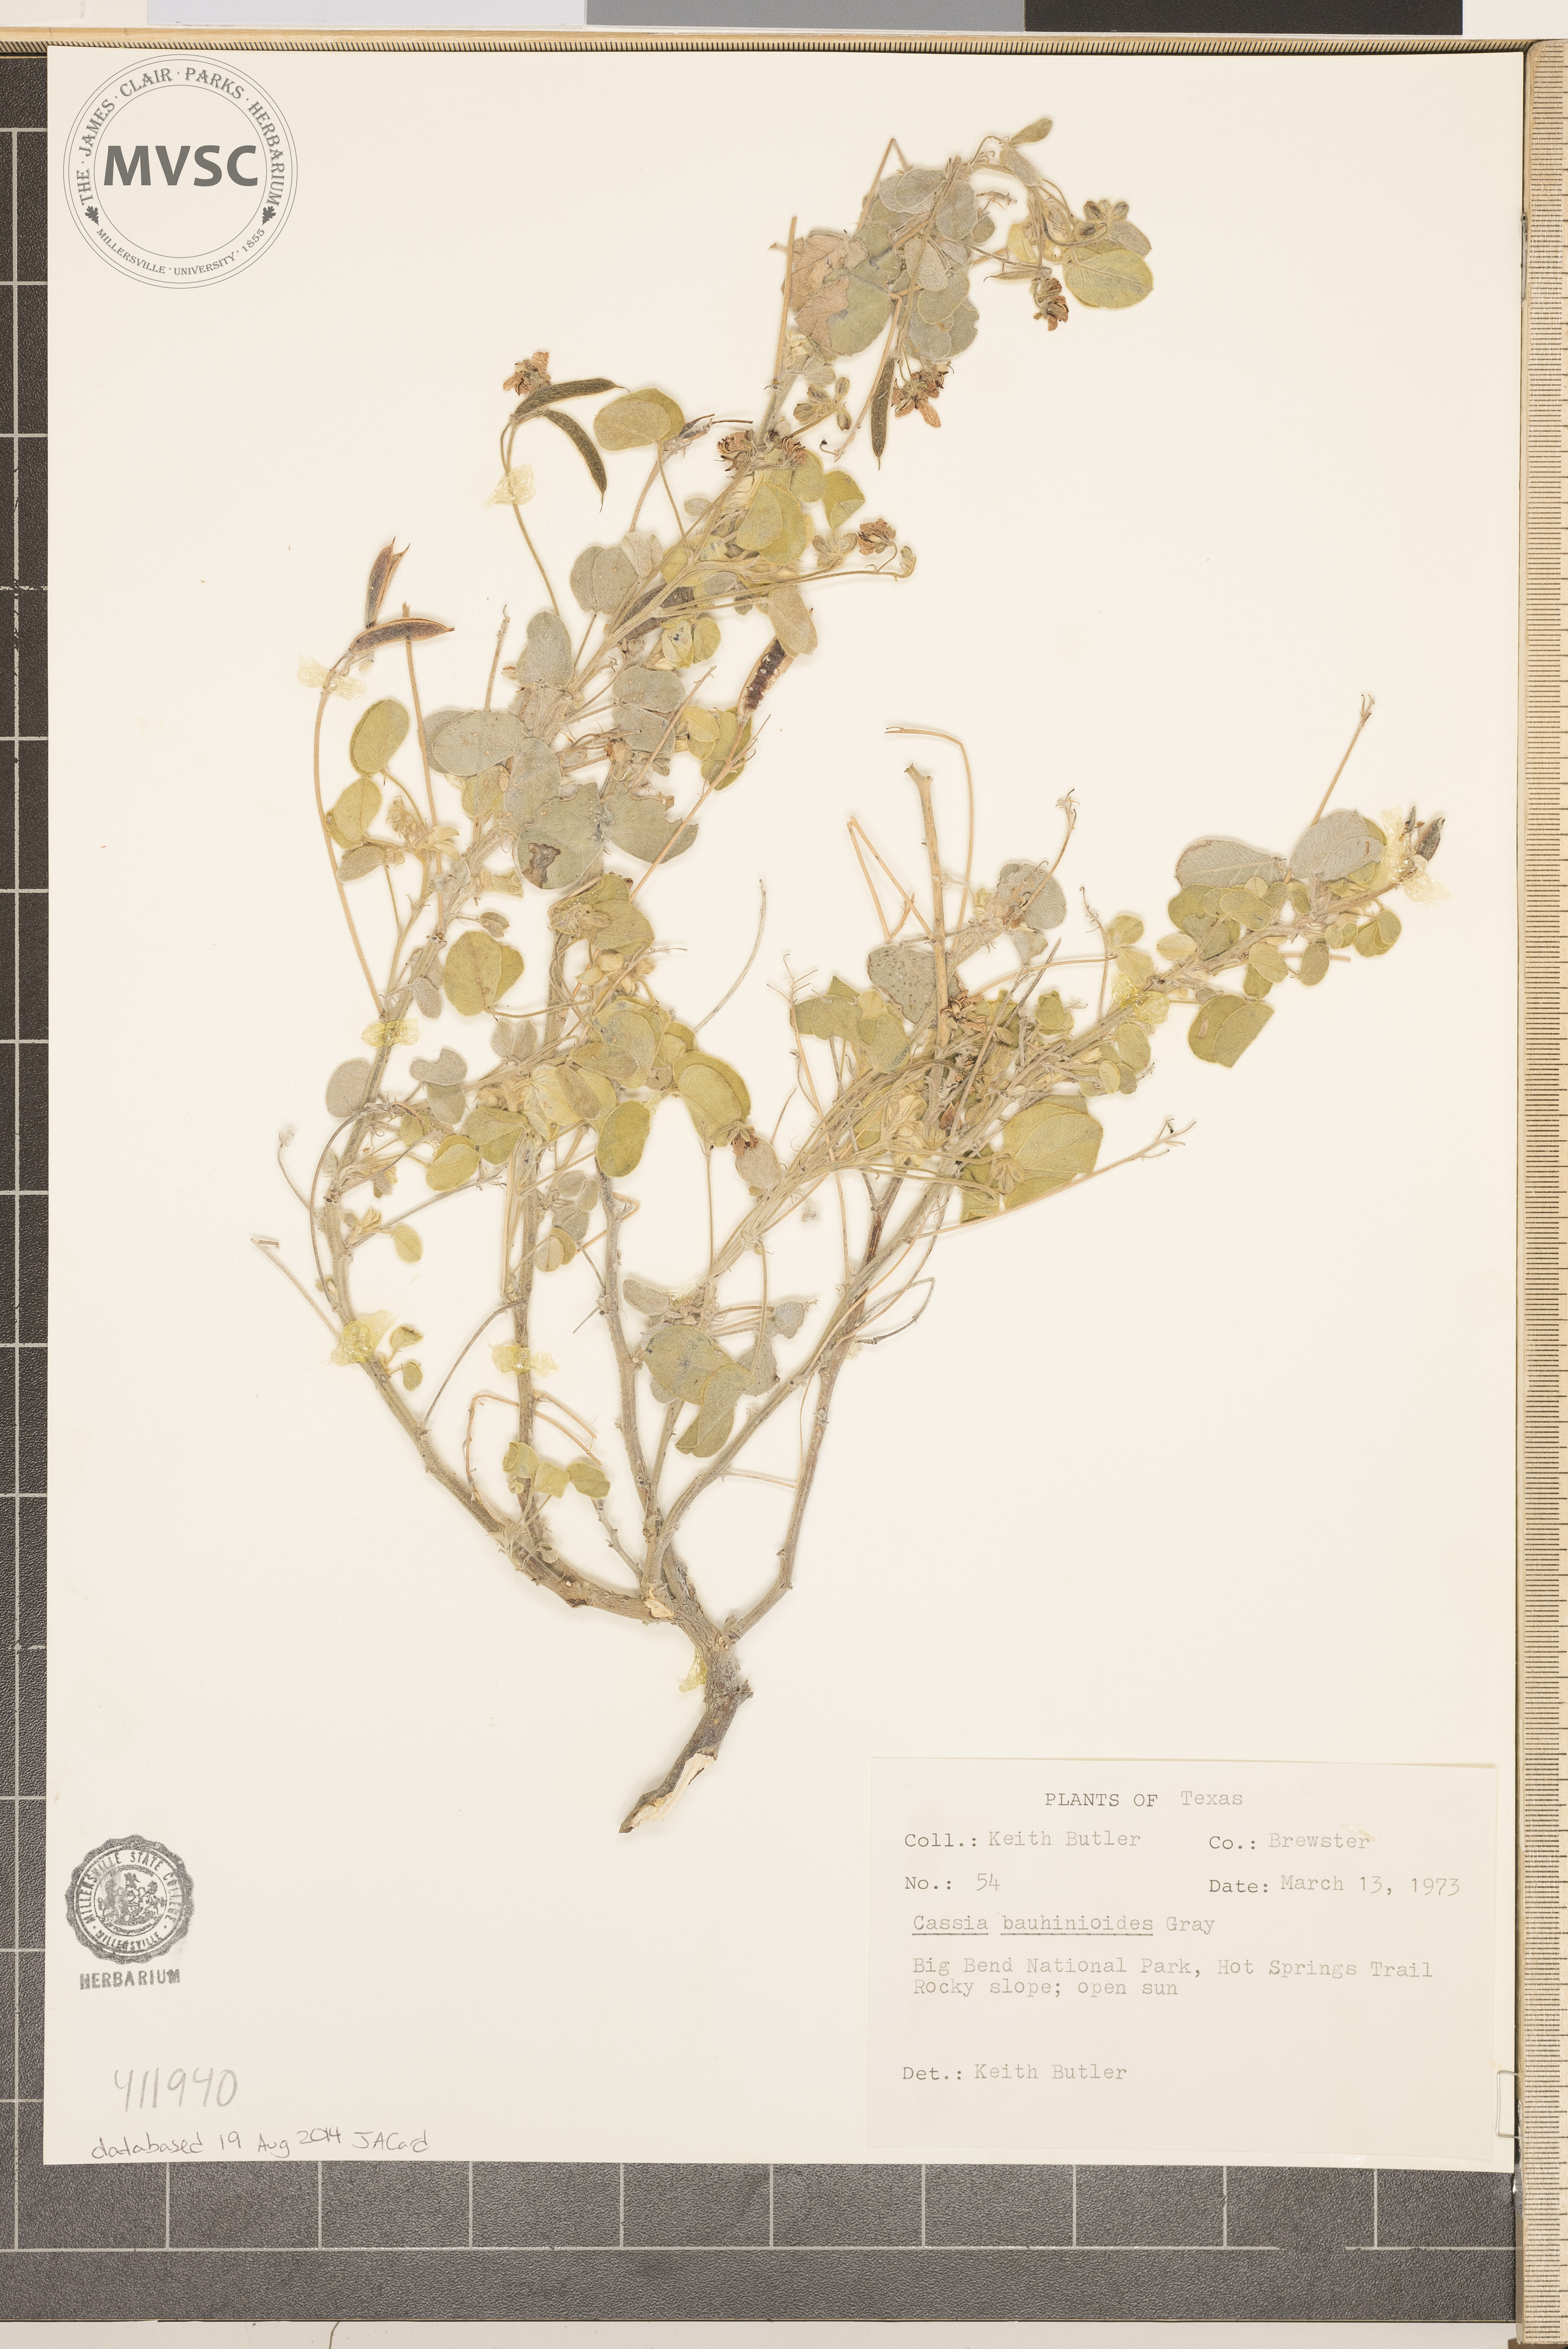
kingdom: Plantae
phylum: Tracheophyta
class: Magnoliopsida
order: Fabales
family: Fabaceae
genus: Senna
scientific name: Senna bauhinioides
